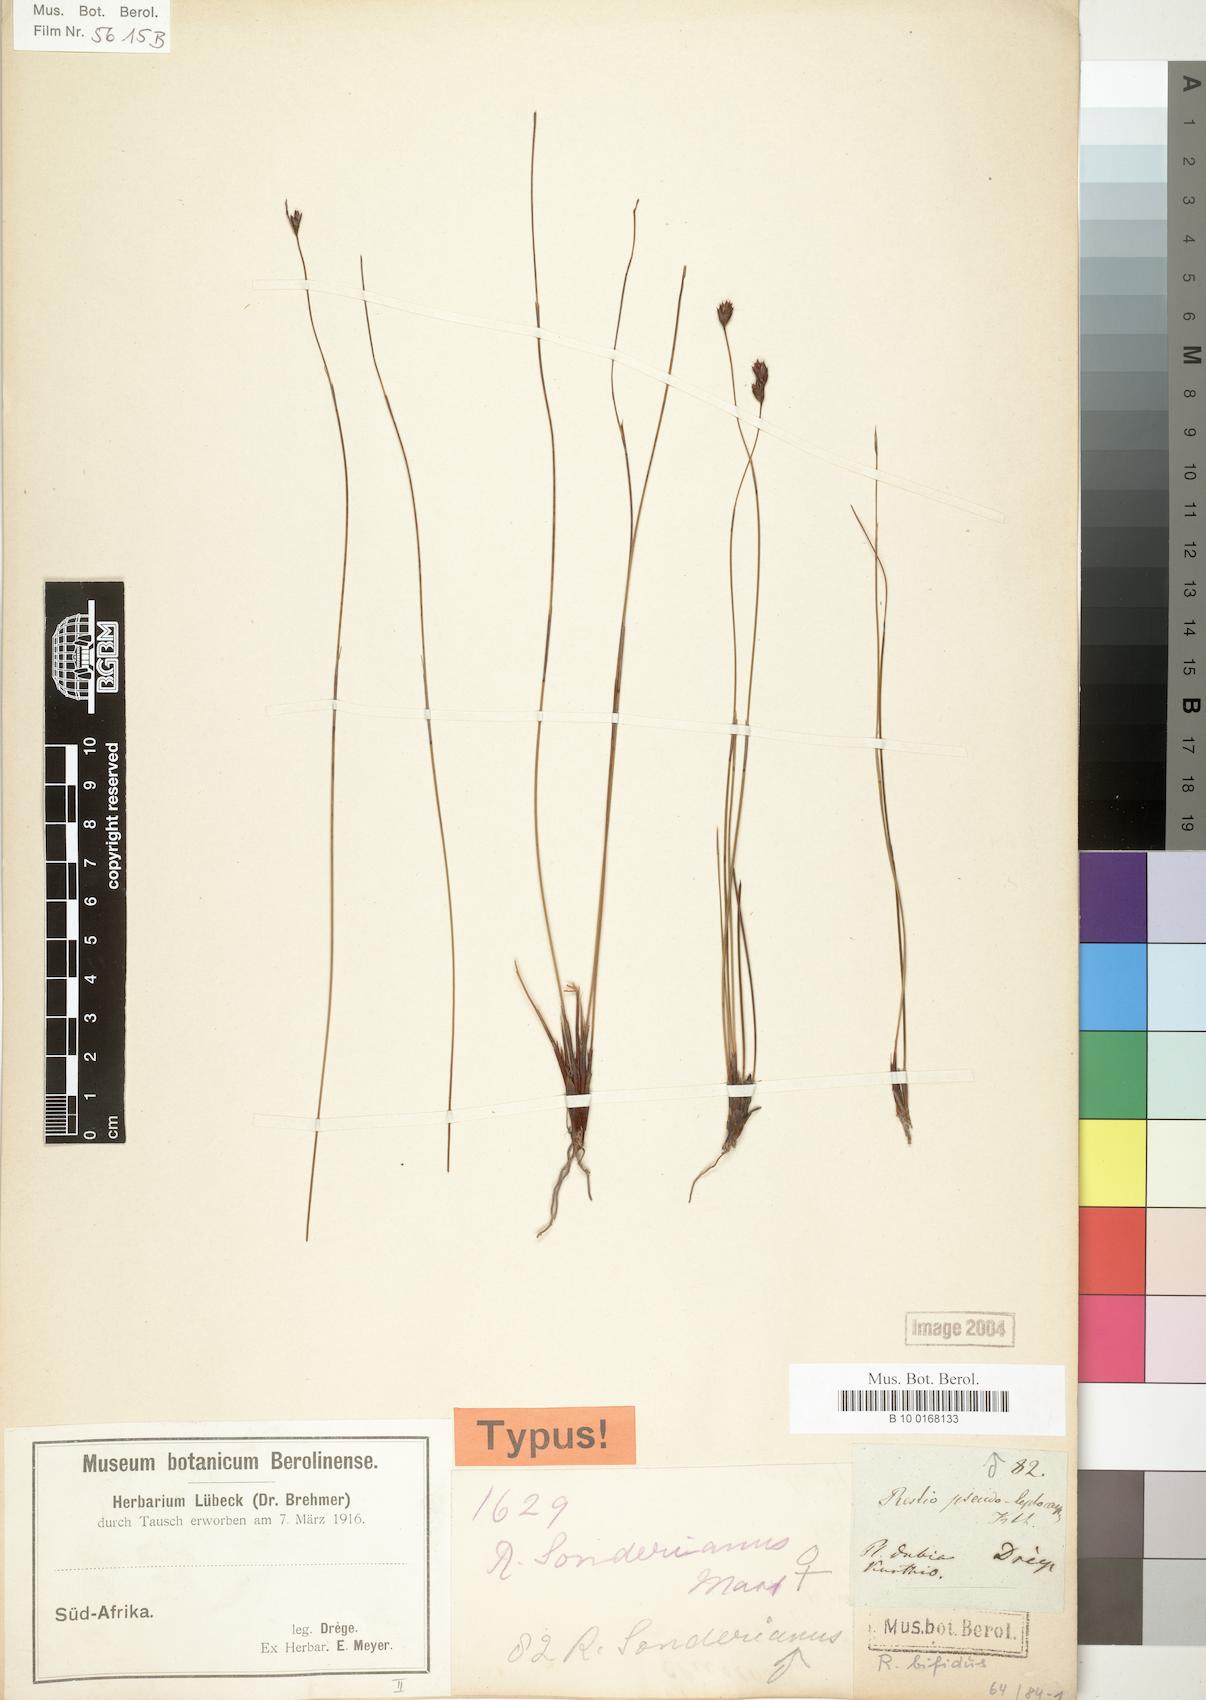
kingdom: Plantae
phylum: Tracheophyta
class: Liliopsida
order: Poales
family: Restionaceae
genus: Restio
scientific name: Restio bifidus
